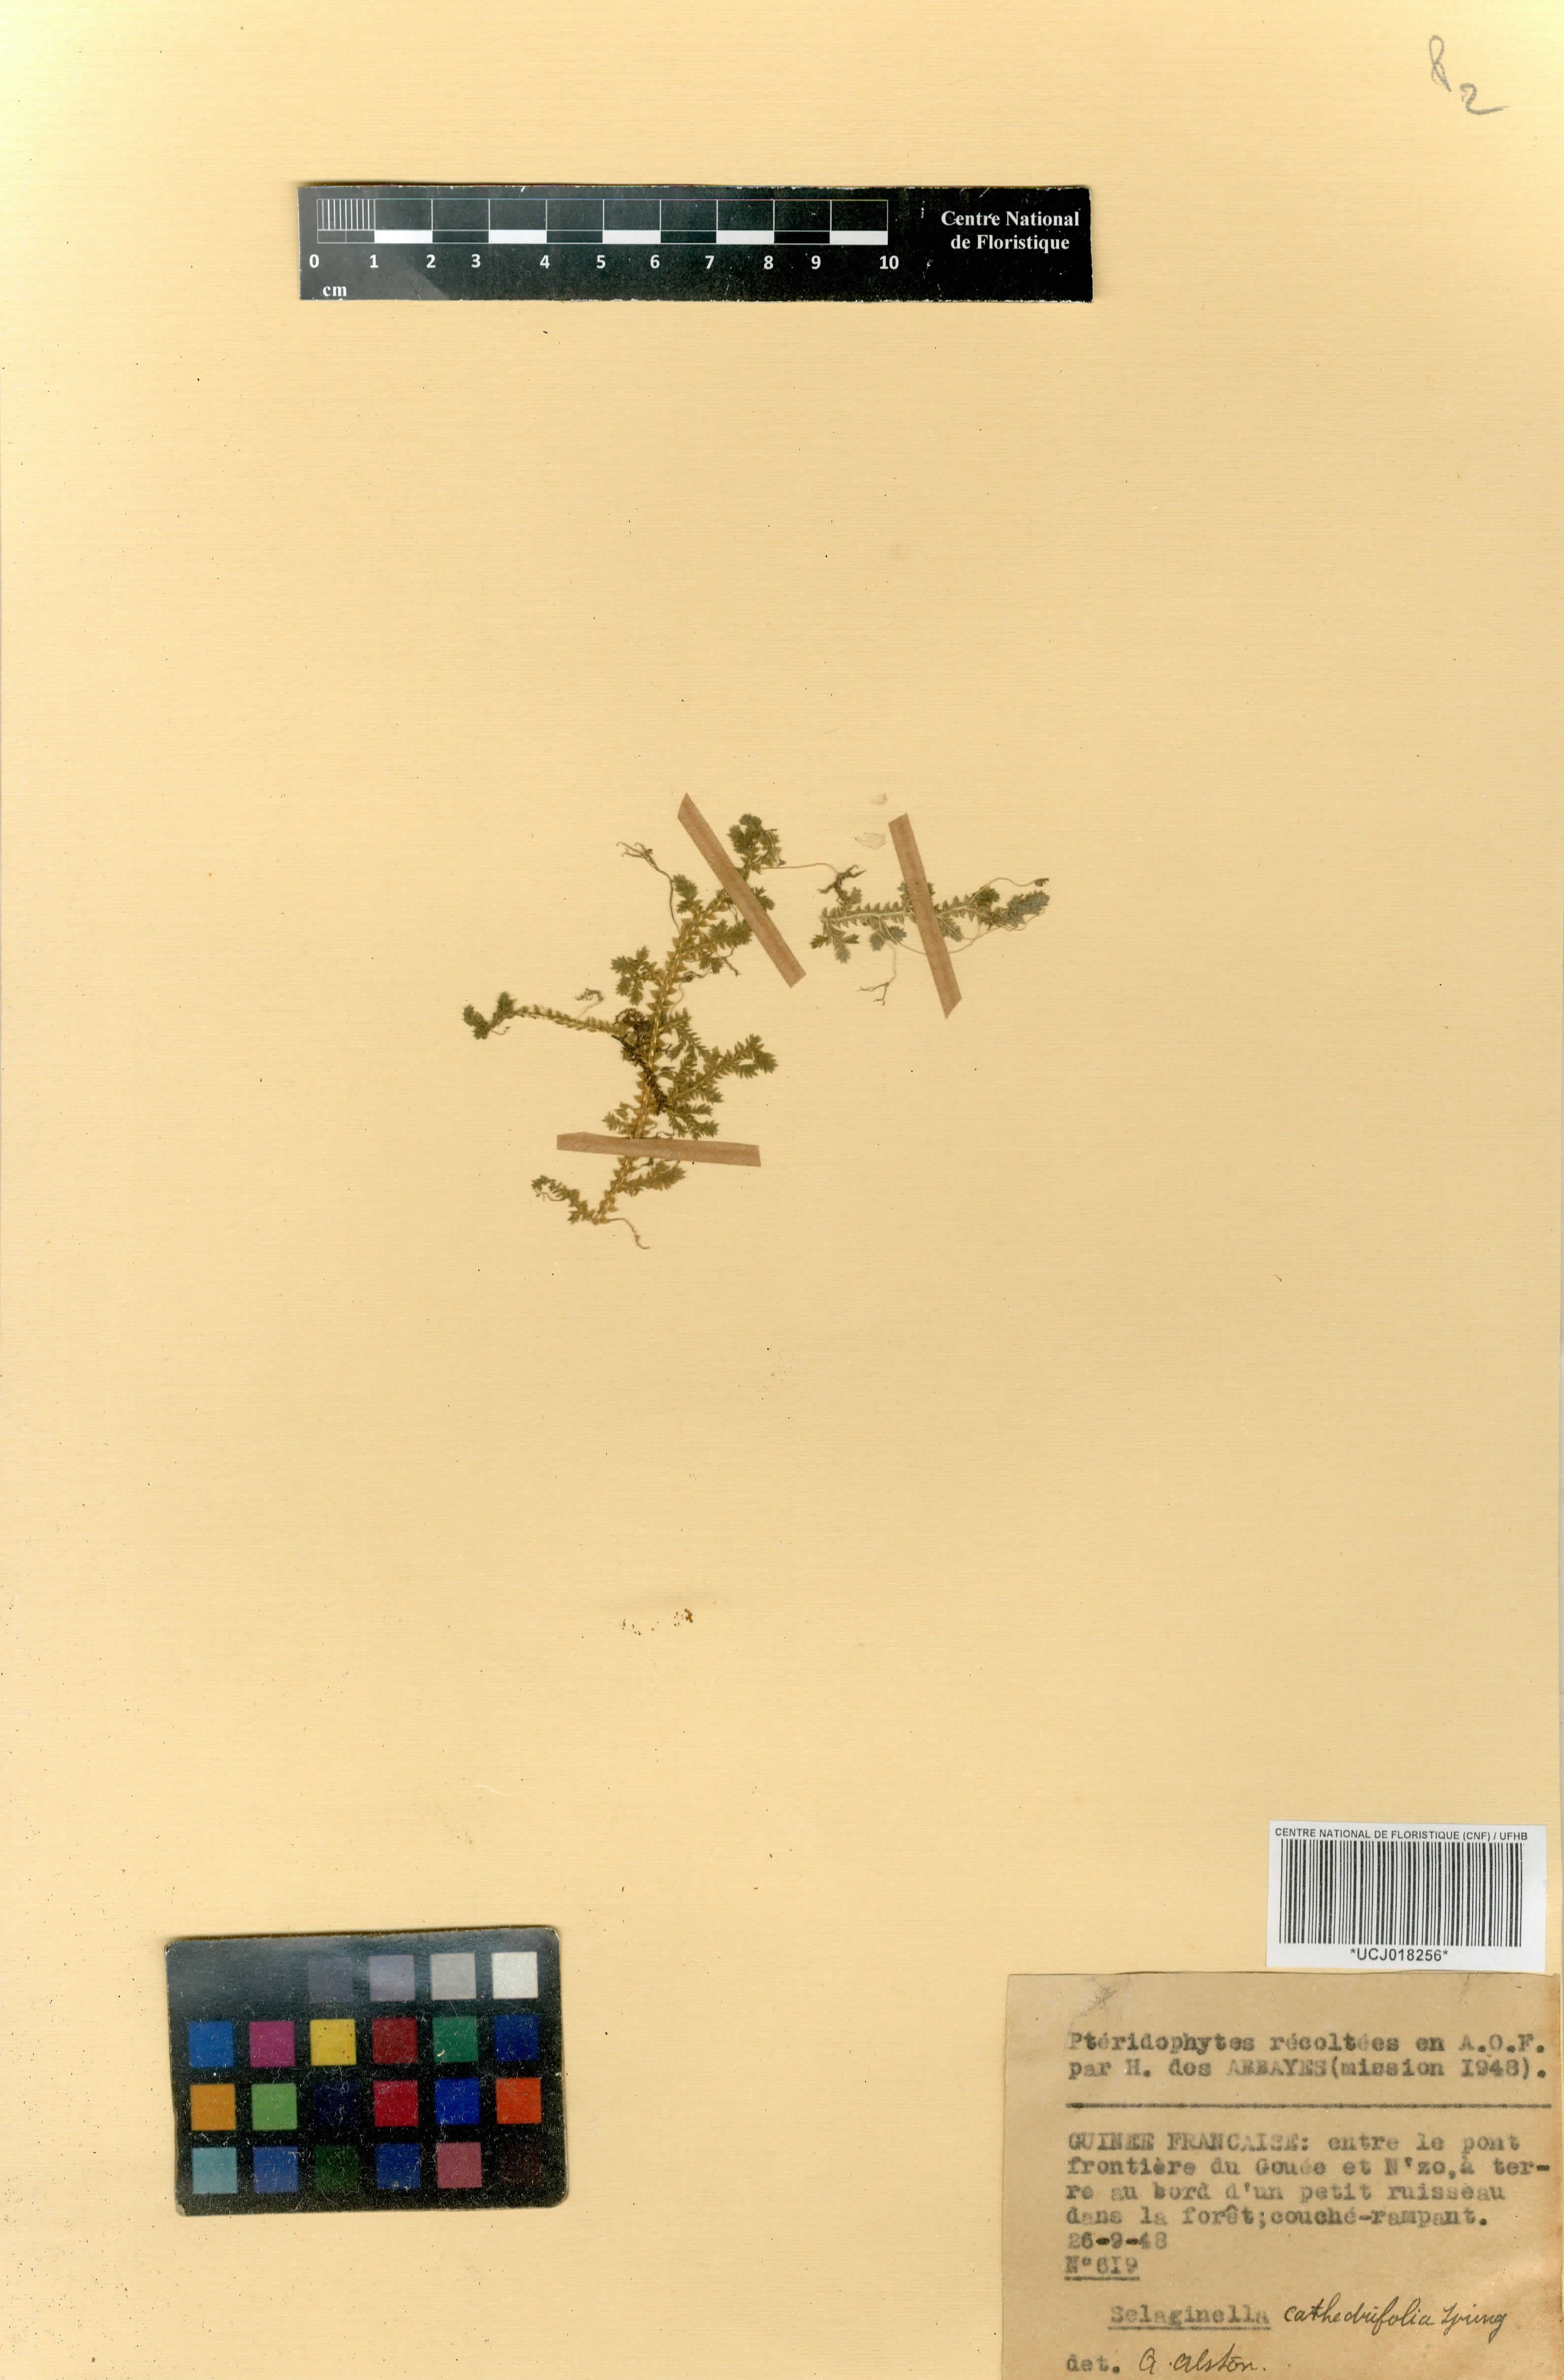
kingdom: Plantae
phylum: Tracheophyta
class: Lycopodiopsida
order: Selaginellales
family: Selaginellaceae
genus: Selaginella
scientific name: Selaginella cathedrifolia
